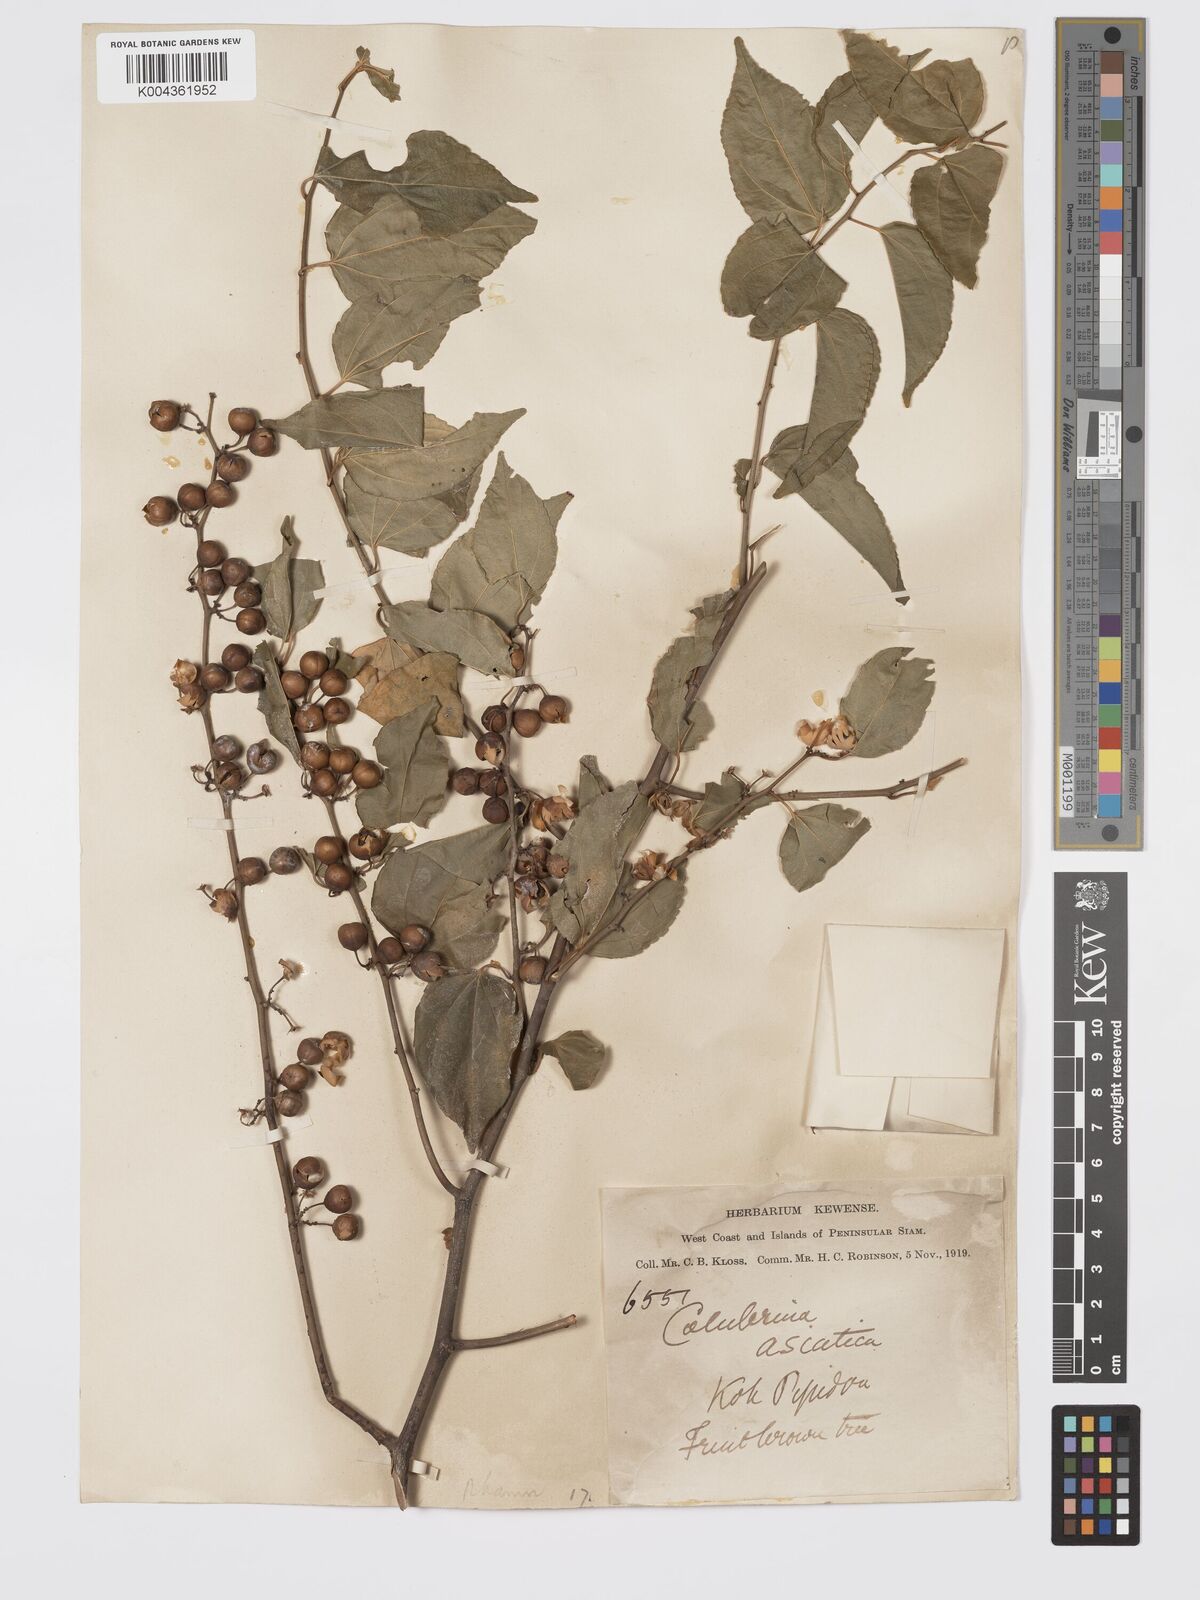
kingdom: Plantae
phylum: Tracheophyta
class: Magnoliopsida
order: Rosales
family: Rhamnaceae
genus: Colubrina
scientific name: Colubrina asiatica
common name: Asian nakedwood
